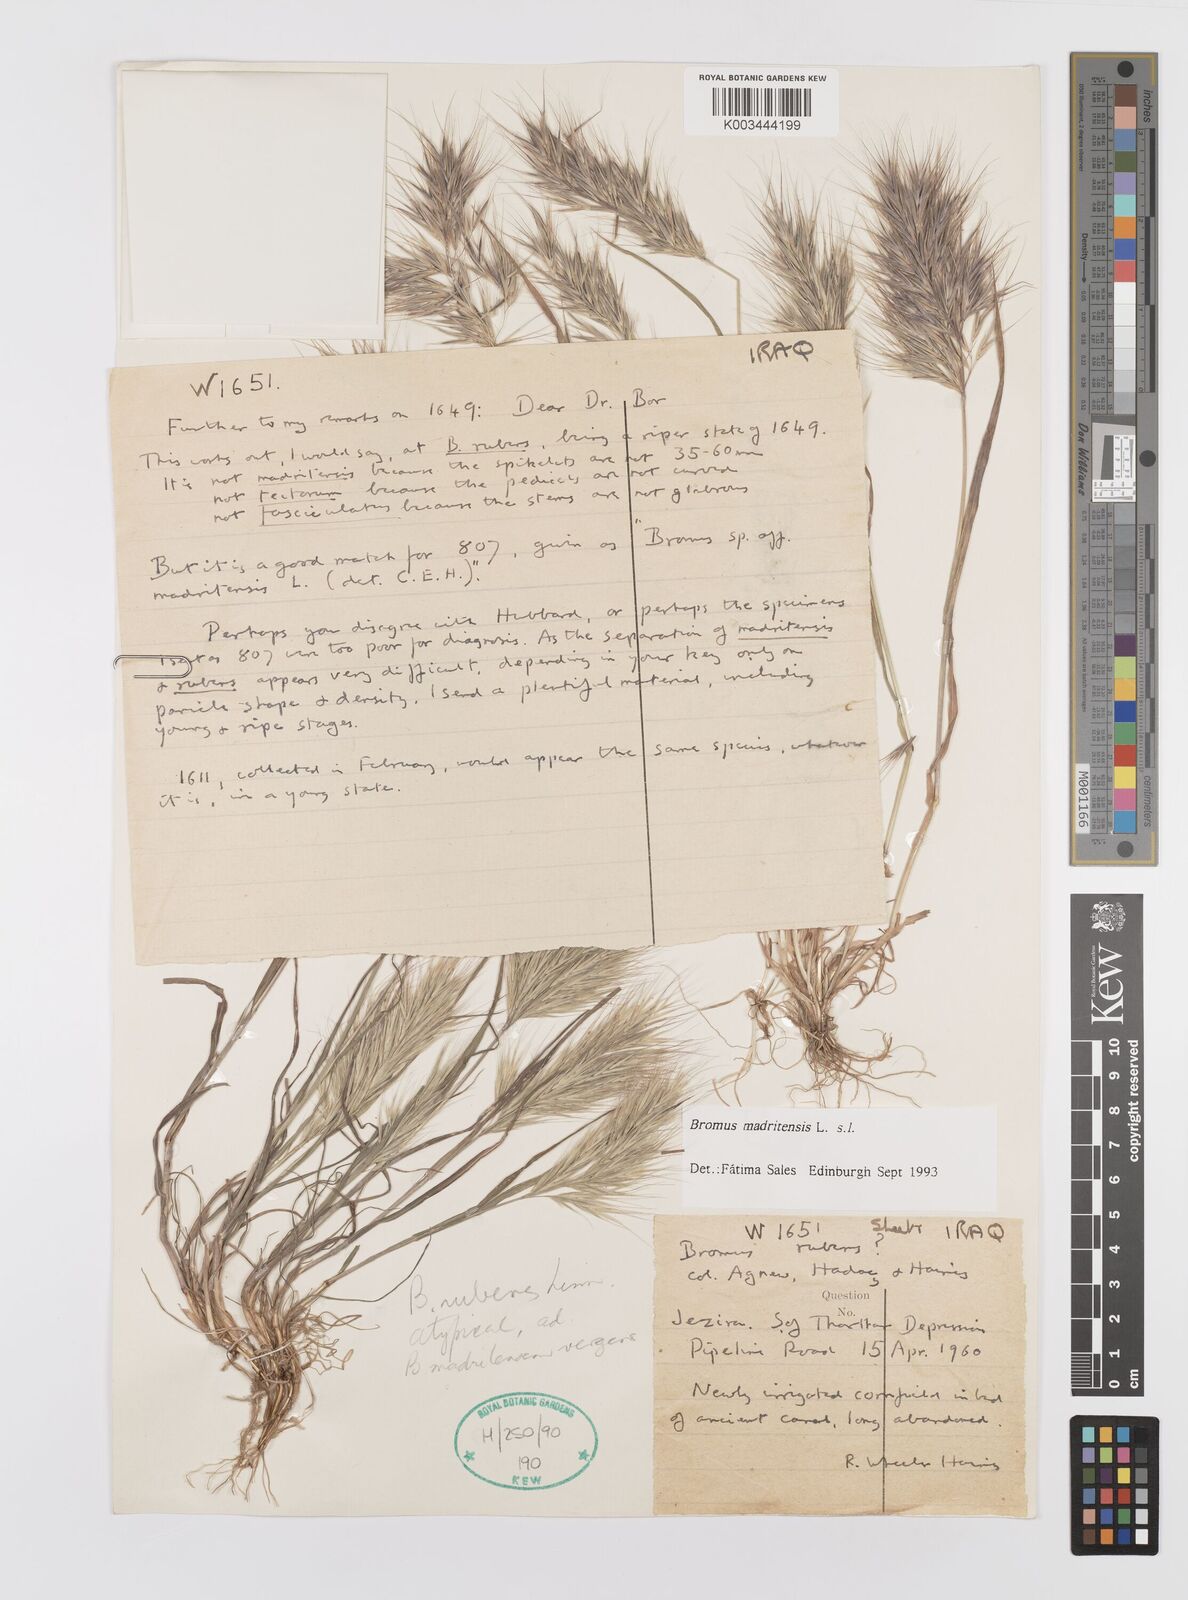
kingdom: Plantae
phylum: Tracheophyta
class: Liliopsida
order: Poales
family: Poaceae
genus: Bromus
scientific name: Bromus madritensis
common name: Compact brome
